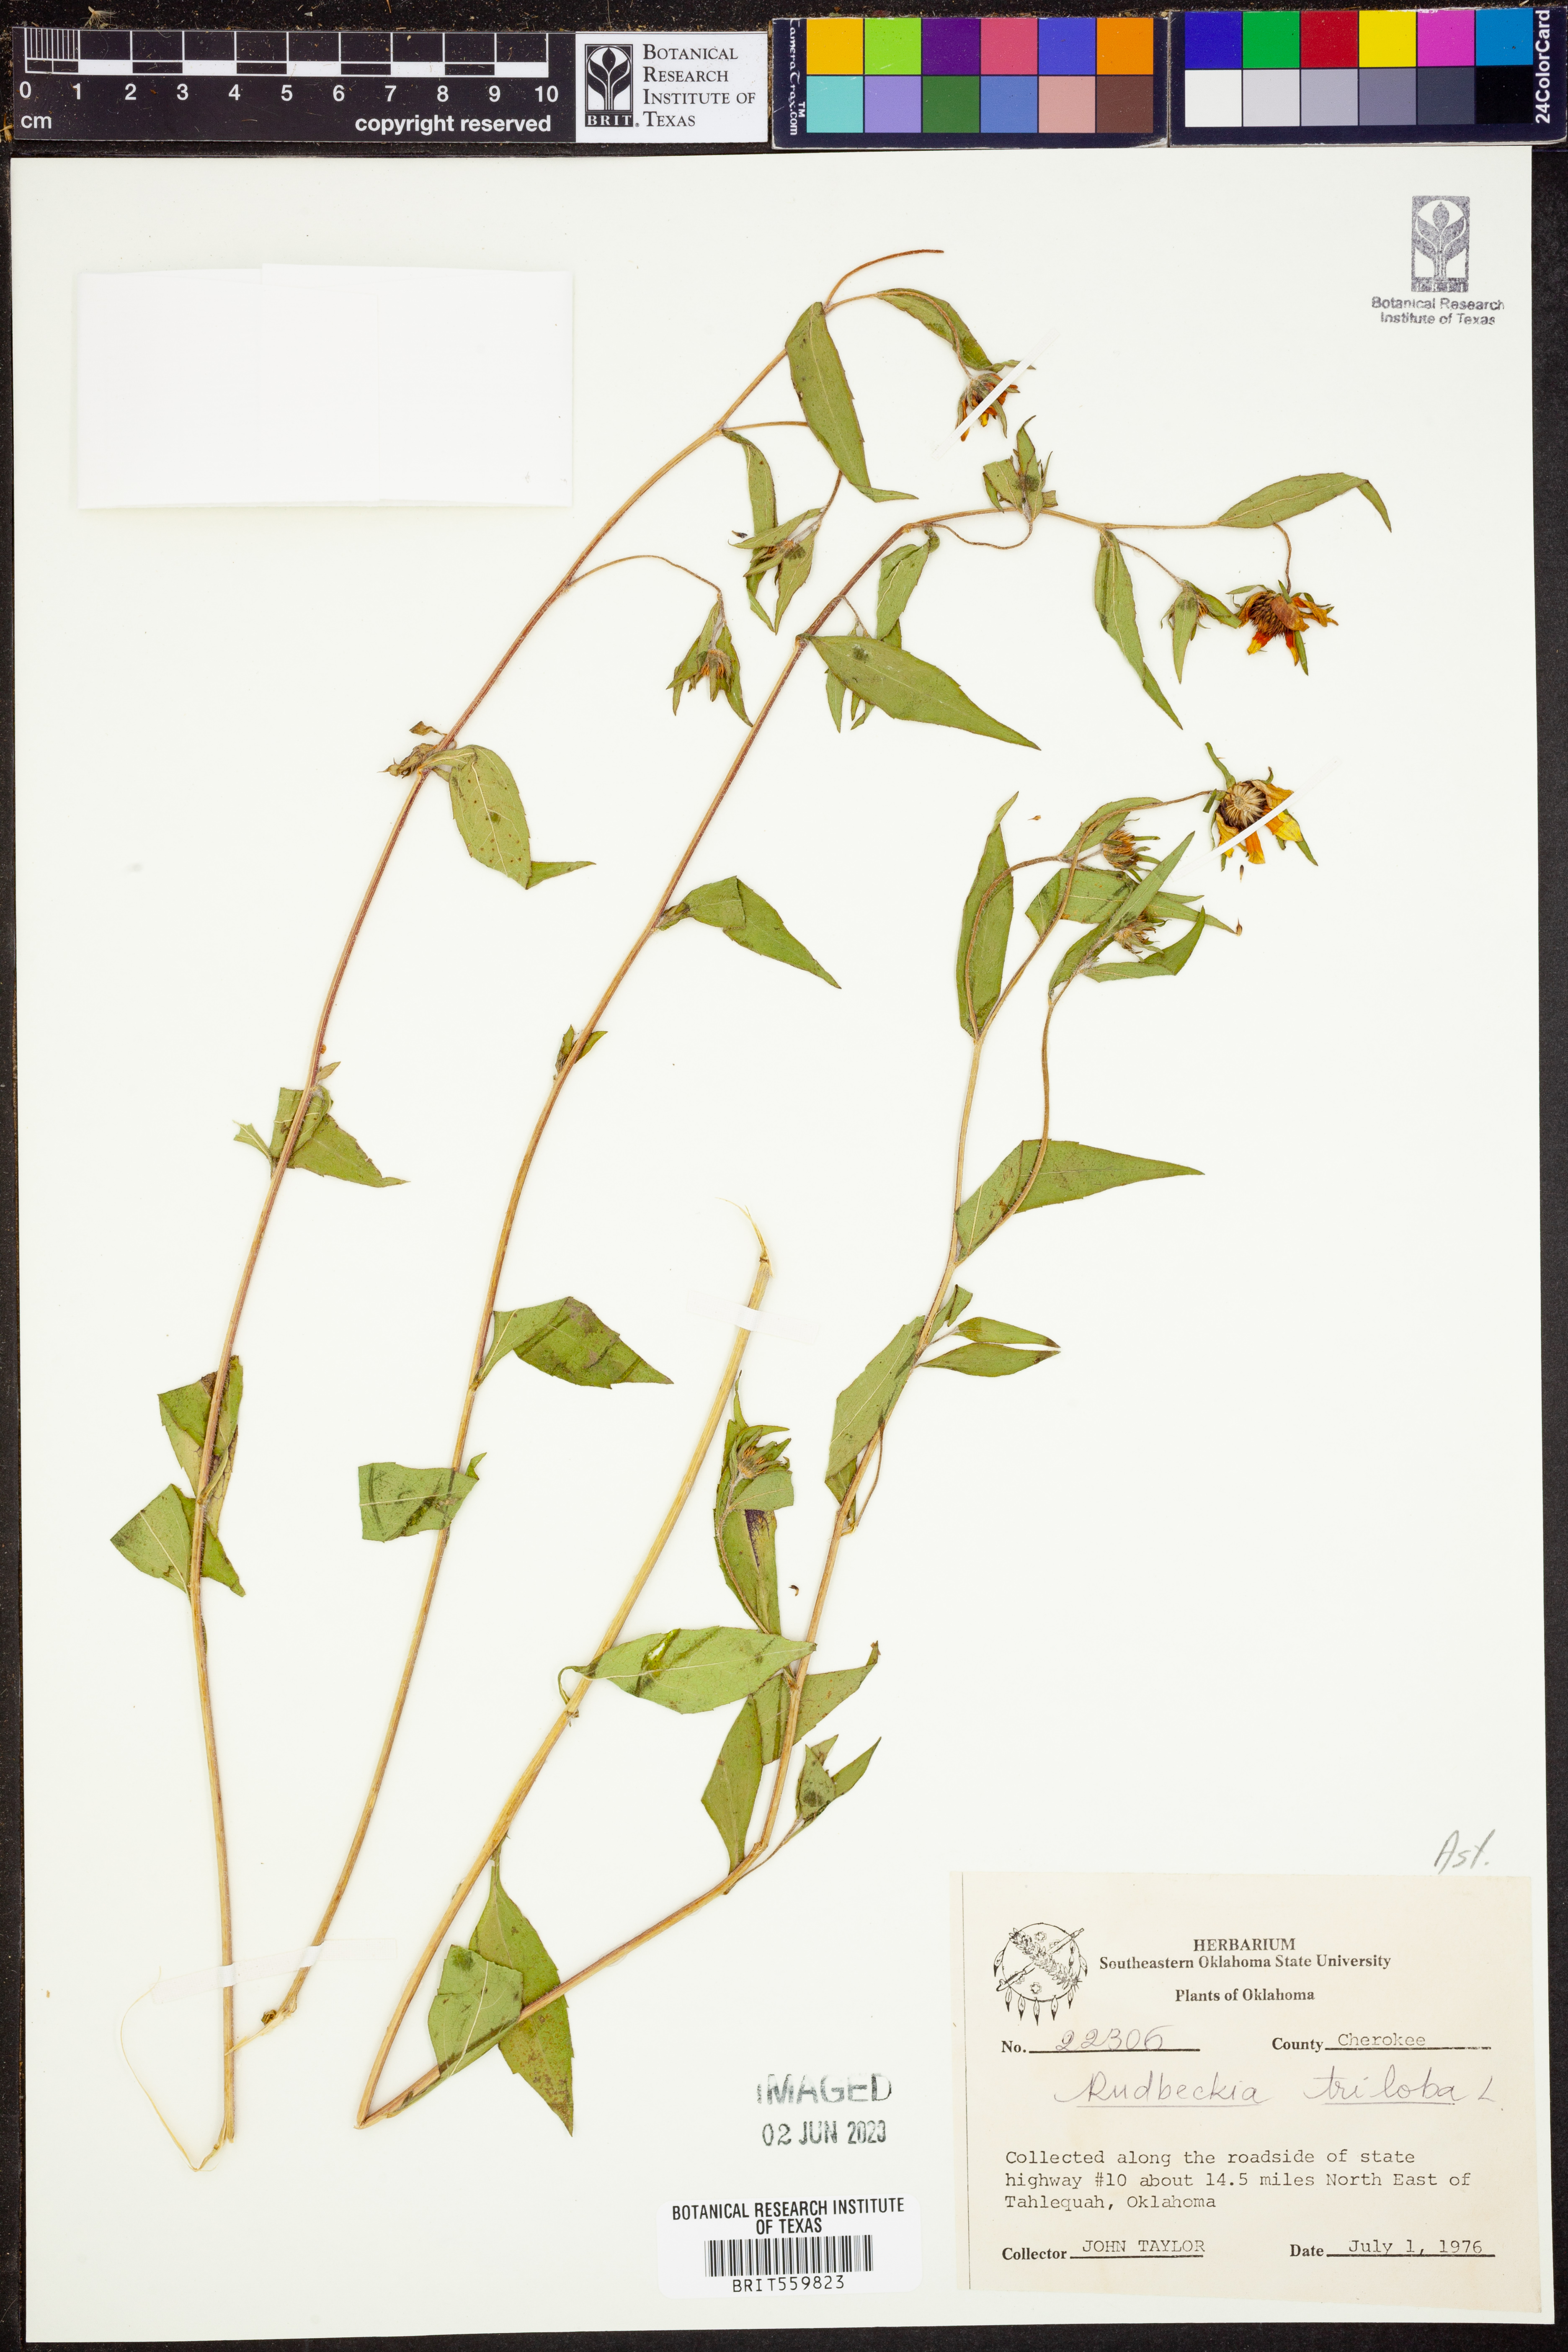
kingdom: Plantae
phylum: Tracheophyta
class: Magnoliopsida
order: Asterales
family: Asteraceae
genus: Rudbeckia
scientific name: Rudbeckia triloba
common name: Thin-leaved coneflower
